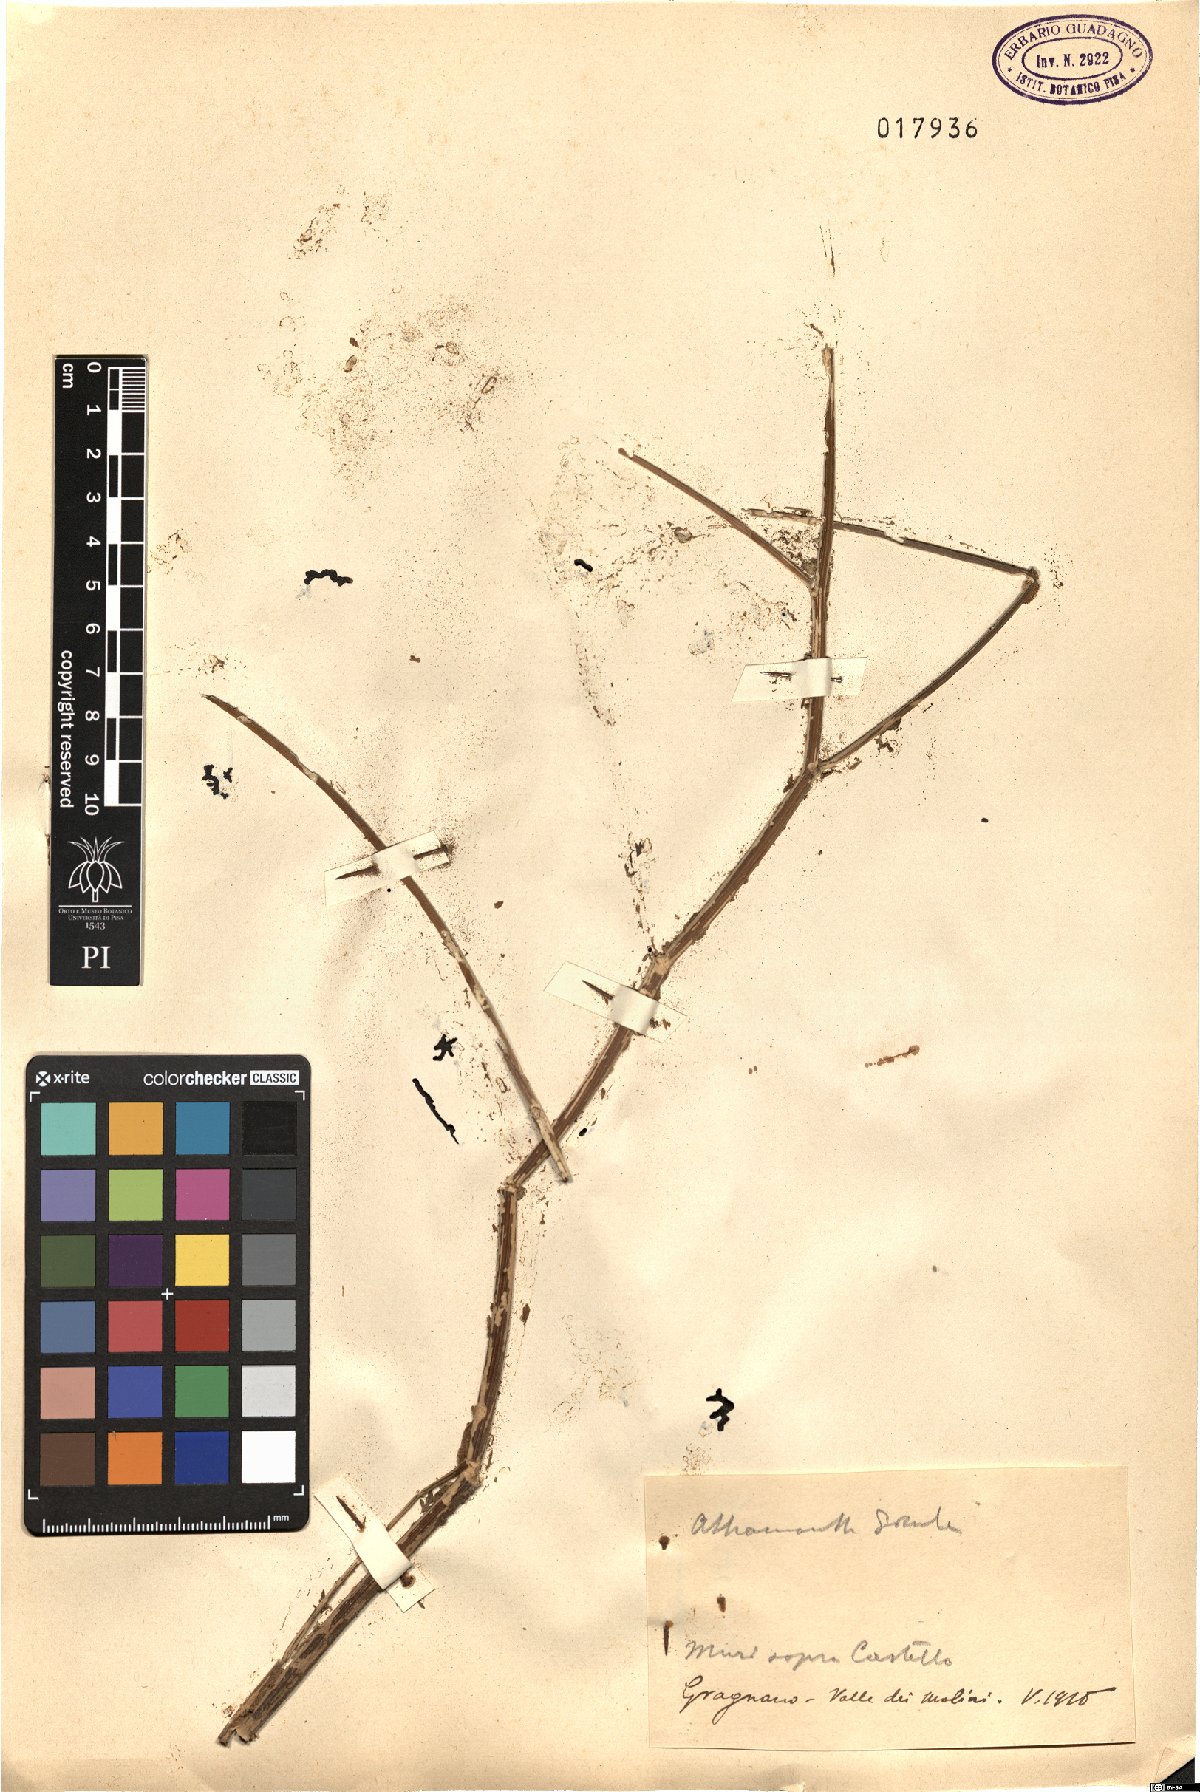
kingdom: Plantae
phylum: Tracheophyta
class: Magnoliopsida
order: Apiales
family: Apiaceae
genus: Athamanta
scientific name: Athamanta sicula
